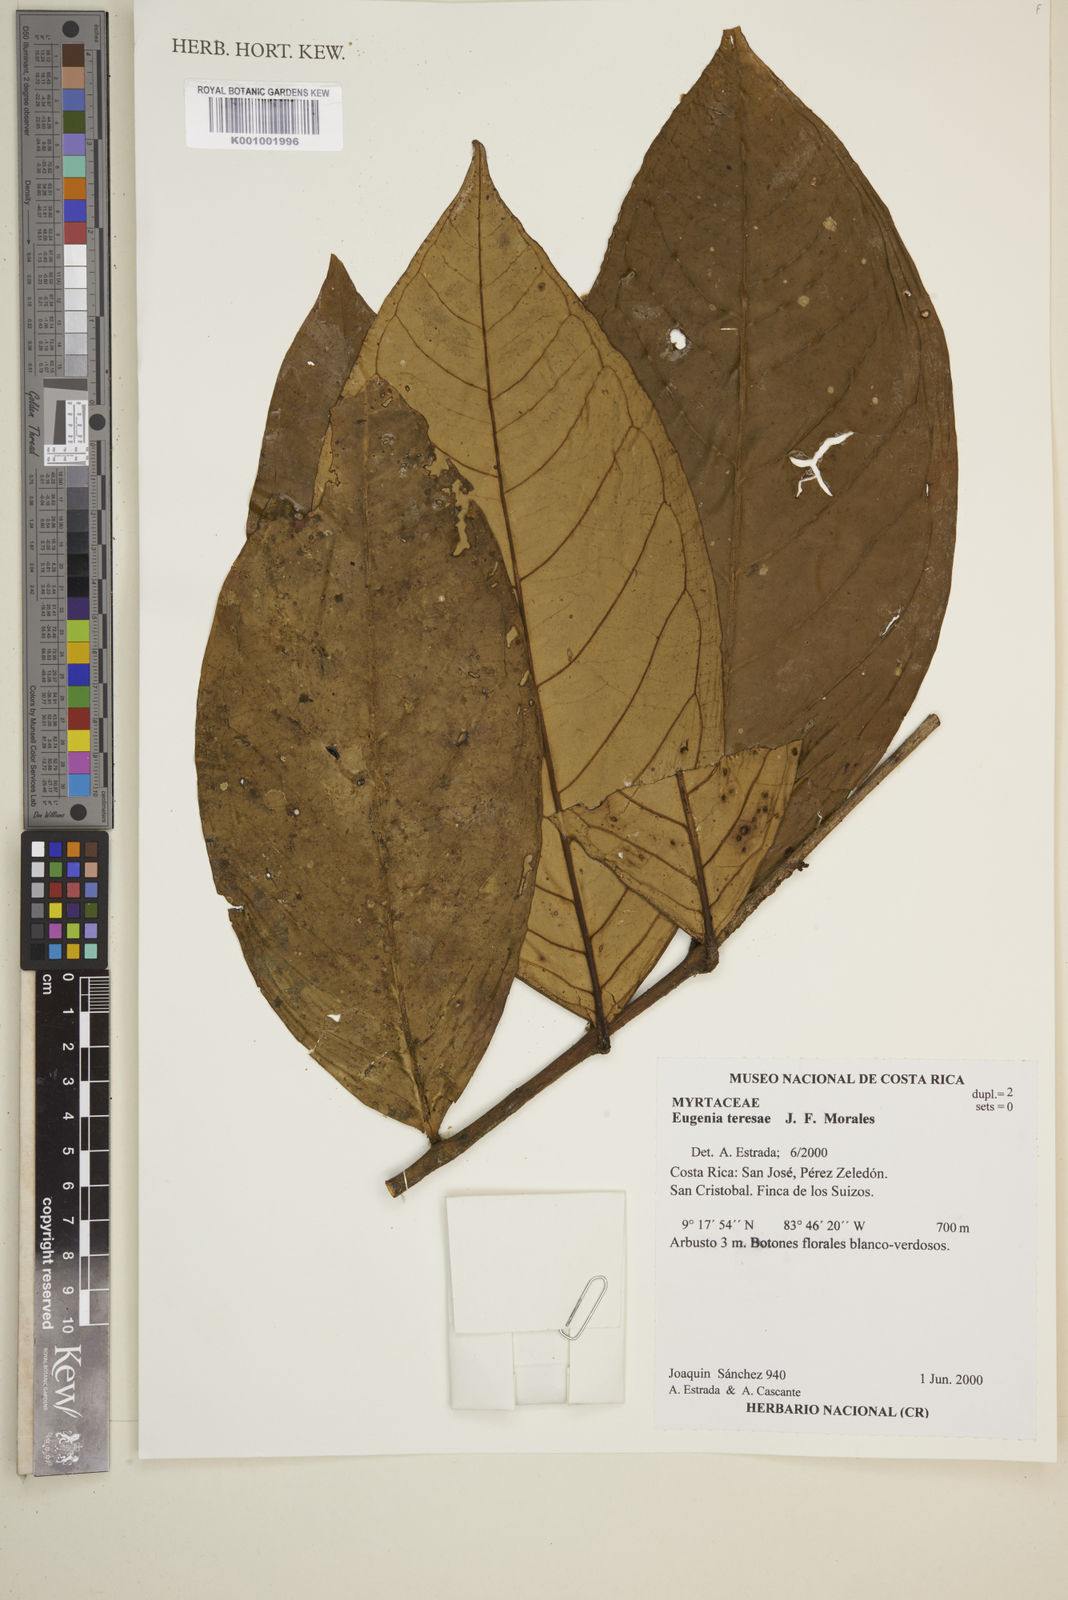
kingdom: Plantae
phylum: Tracheophyta
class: Magnoliopsida
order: Myrtales
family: Myrtaceae
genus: Eugenia
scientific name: Eugenia teresae
